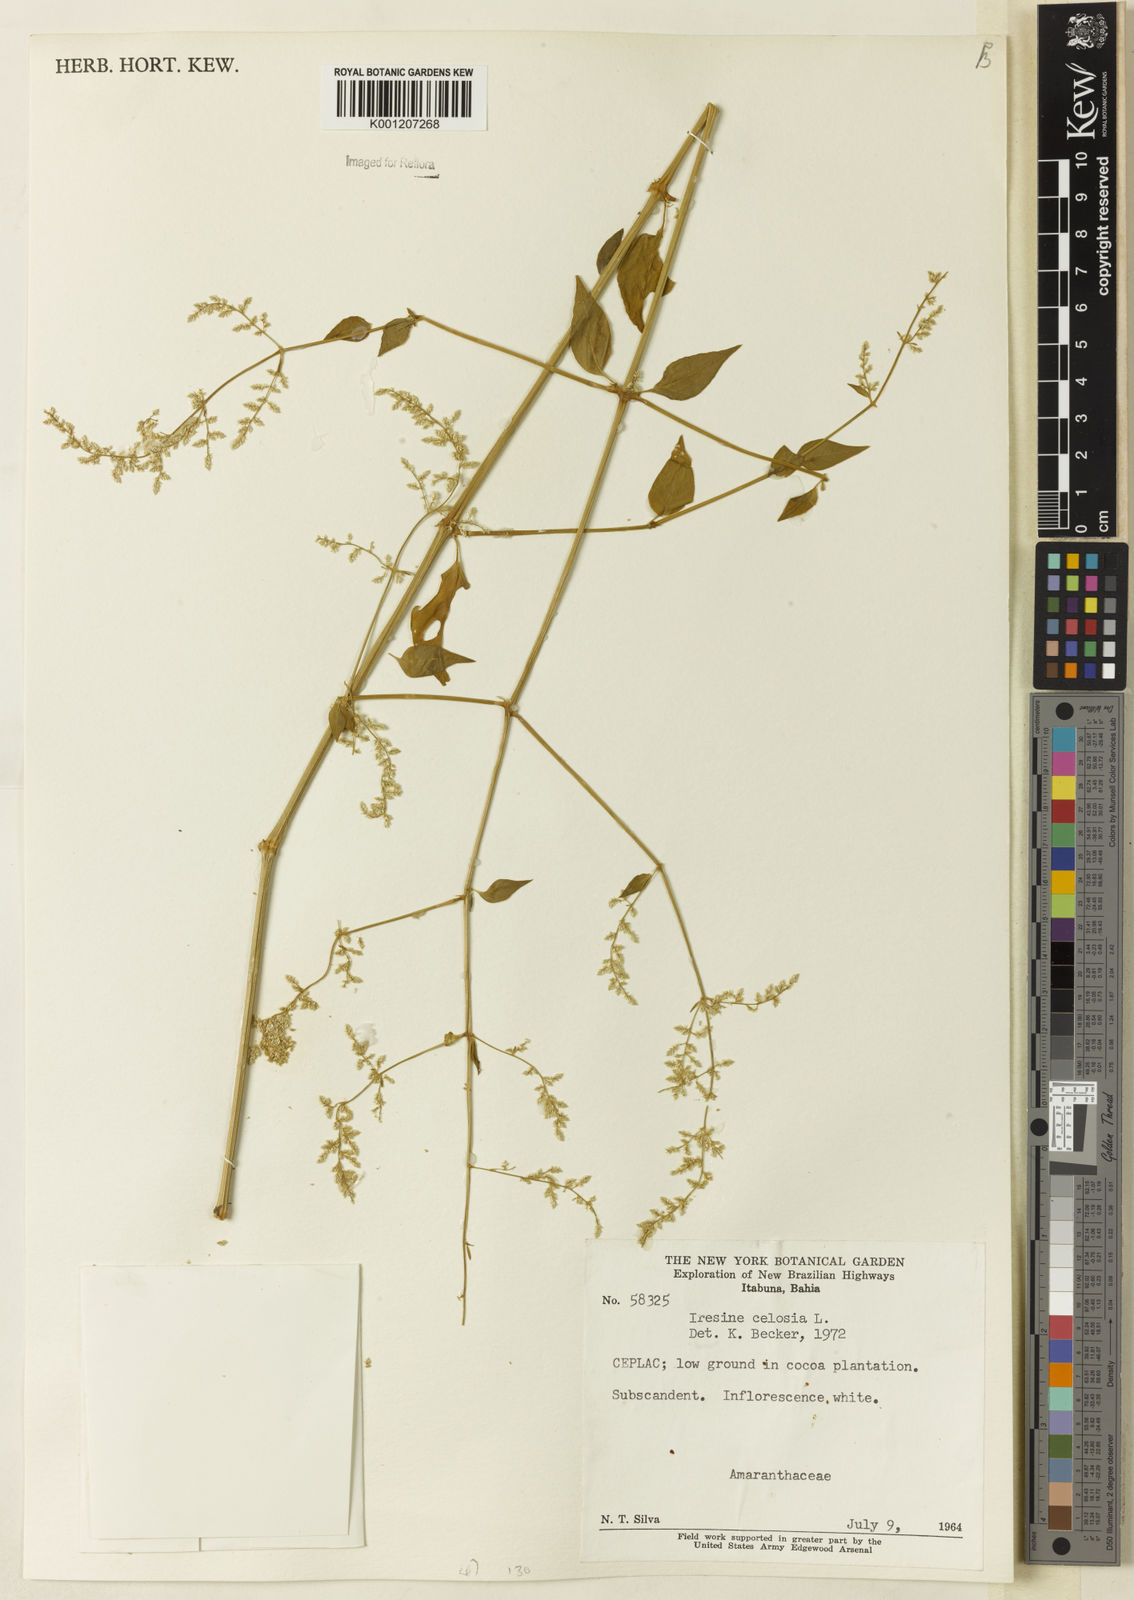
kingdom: Plantae
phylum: Tracheophyta
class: Magnoliopsida
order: Caryophyllales
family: Amaranthaceae
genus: Iresine
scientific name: Iresine rhizomatosa
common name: Juda's-bush
